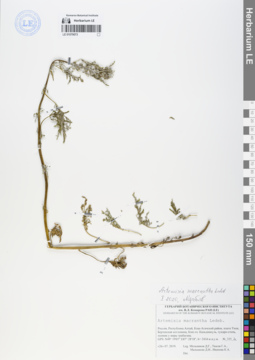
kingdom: Plantae
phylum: Tracheophyta
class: Magnoliopsida
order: Asterales
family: Asteraceae
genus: Artemisia
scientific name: Artemisia macrantha
